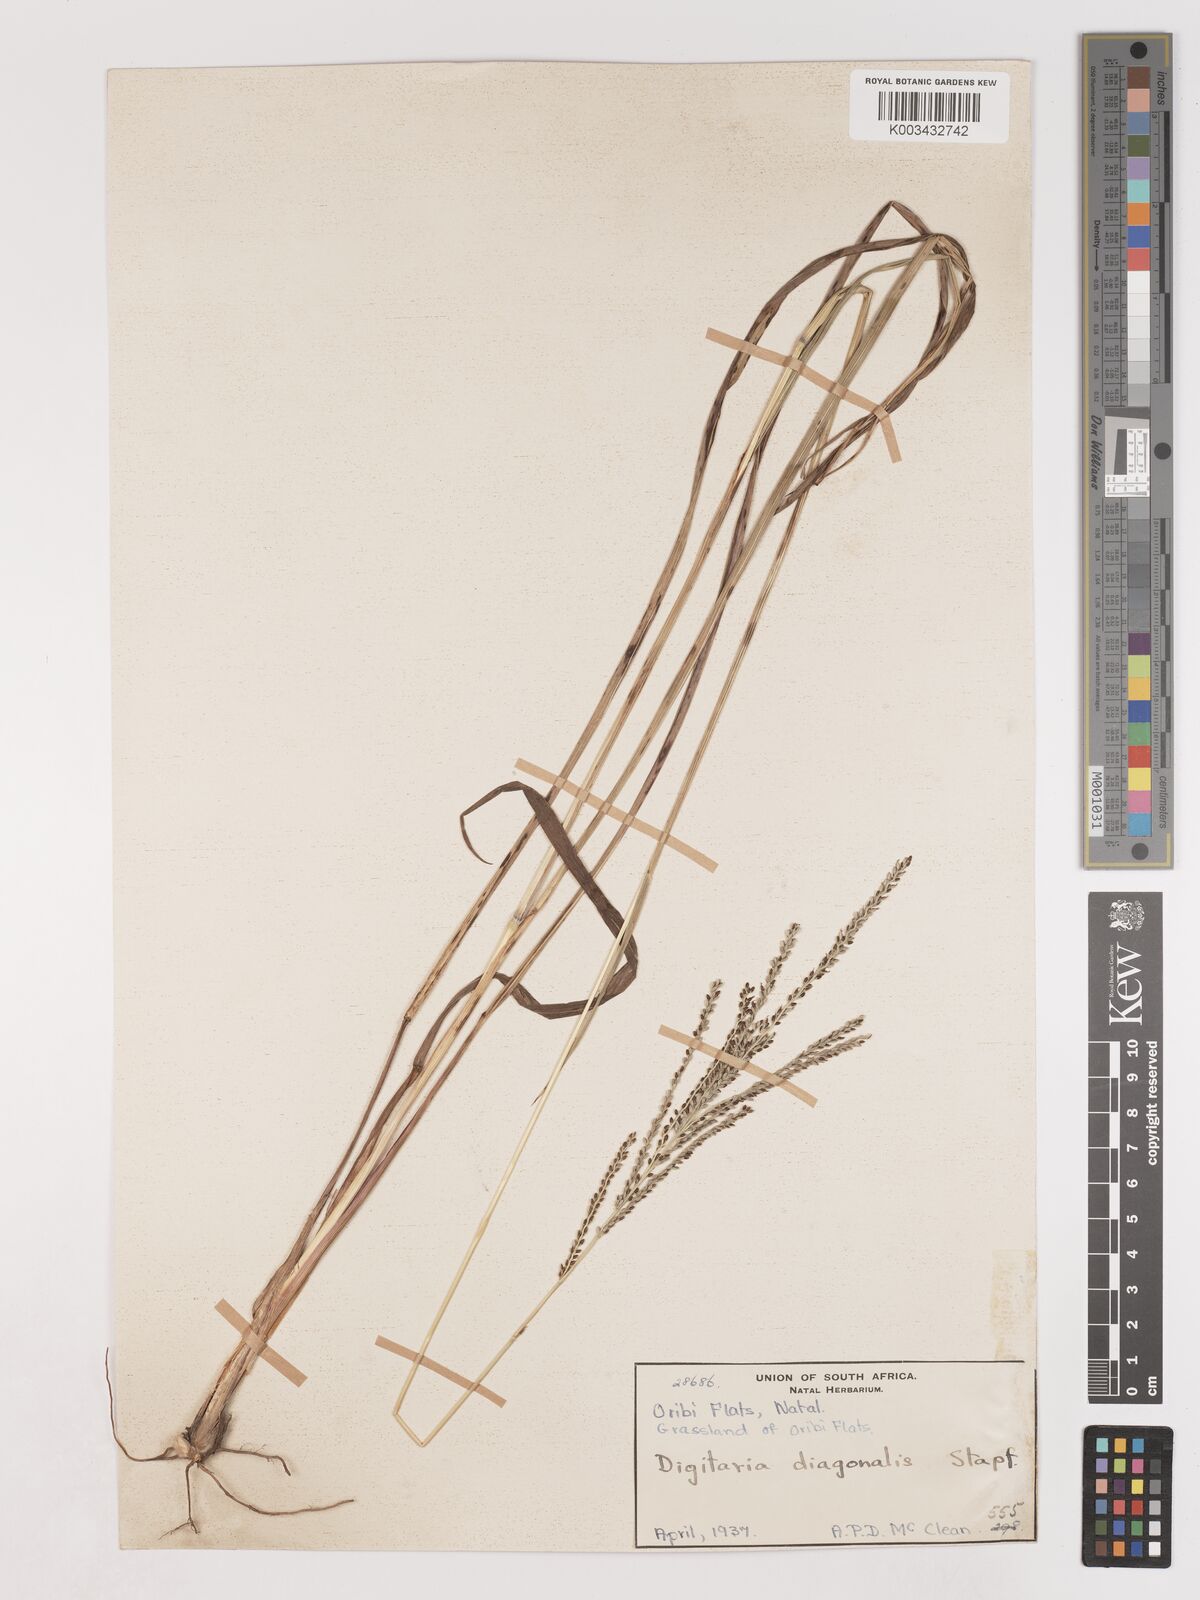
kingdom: Plantae
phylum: Tracheophyta
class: Liliopsida
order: Poales
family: Poaceae
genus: Digitaria
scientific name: Digitaria diagonalis
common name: Brown-seed finger grass
